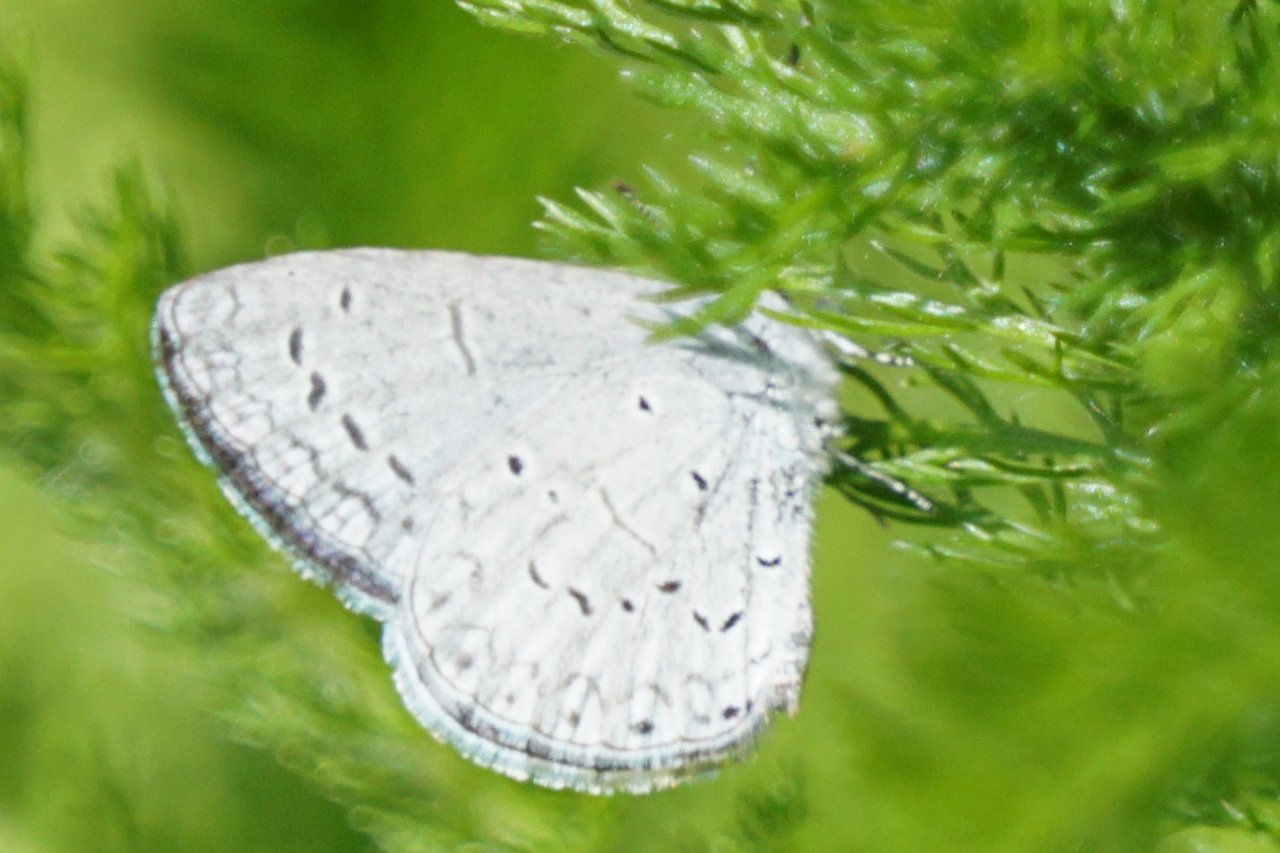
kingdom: Animalia
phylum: Arthropoda
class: Insecta
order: Lepidoptera
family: Lycaenidae
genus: Celastrina
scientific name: Celastrina ladon
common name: Spring Azure
